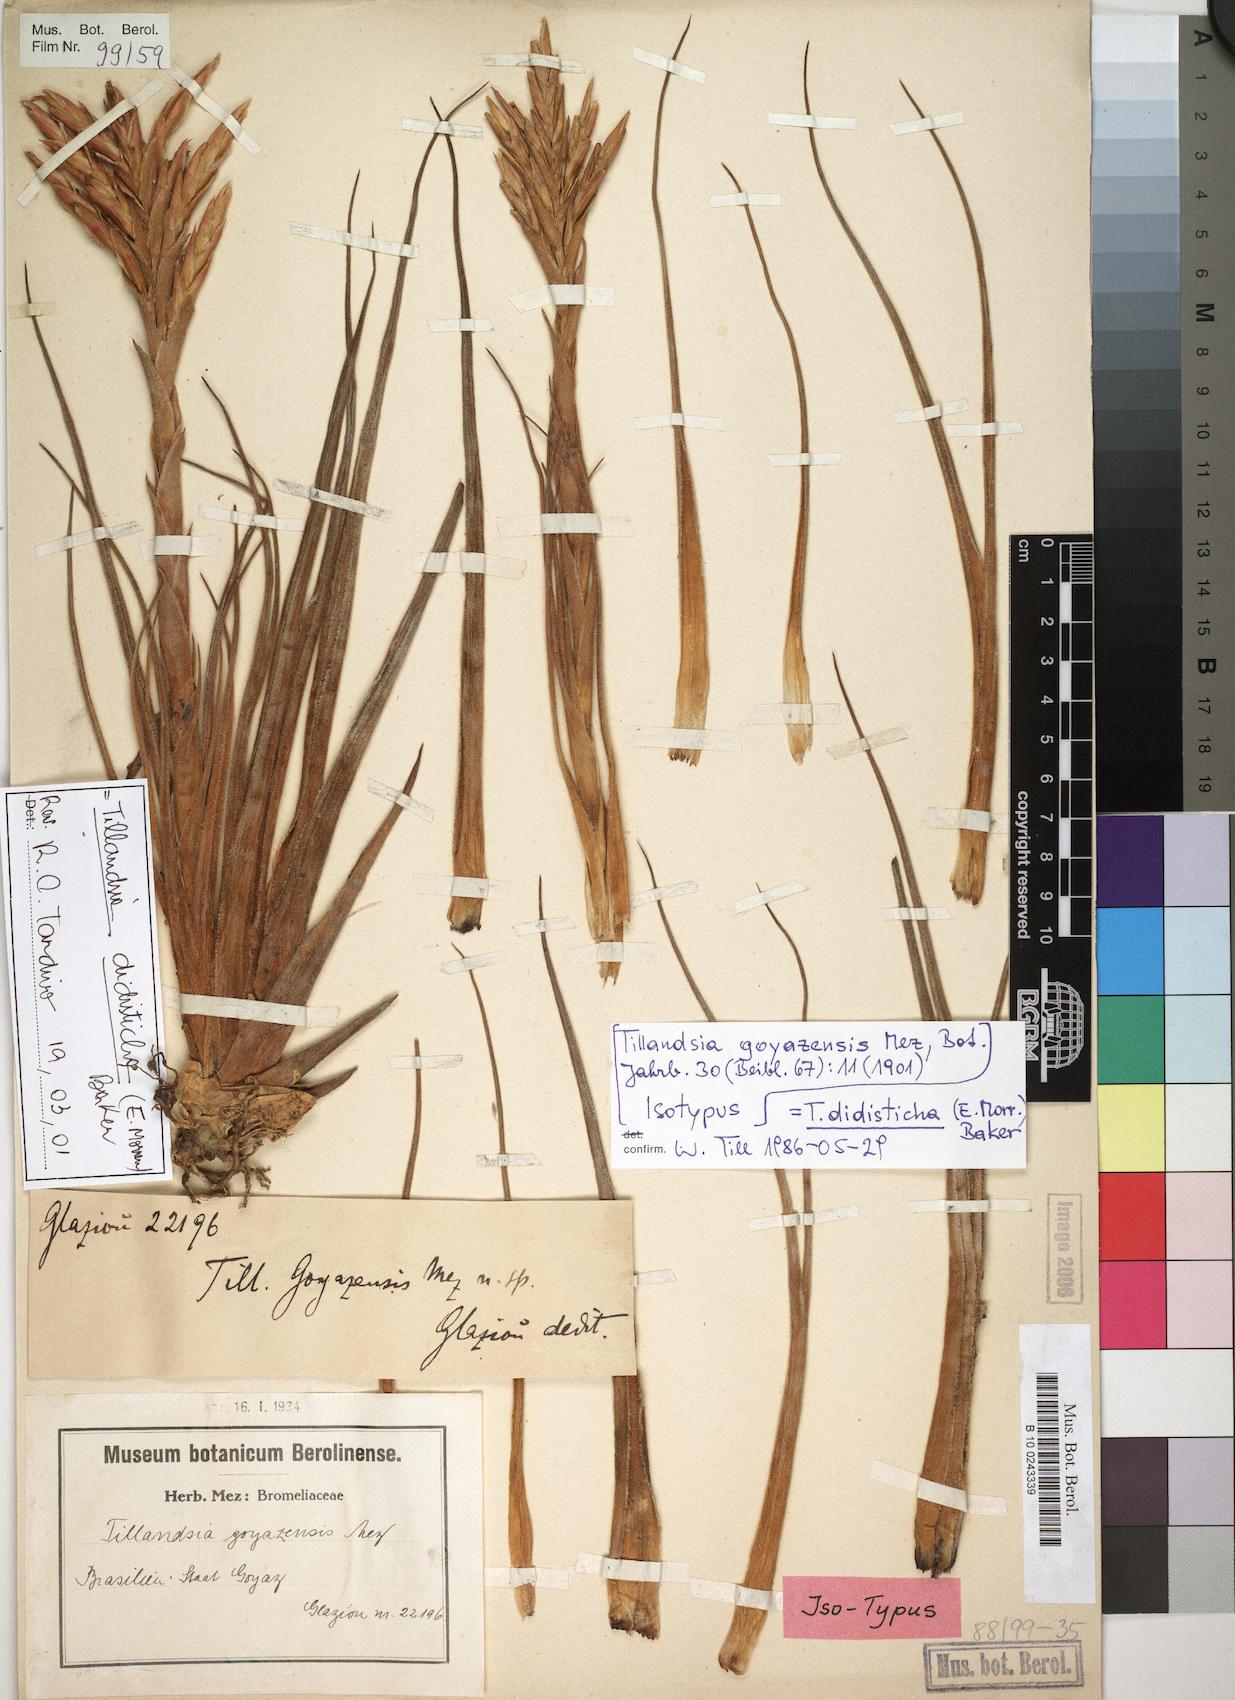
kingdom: Plantae
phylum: Tracheophyta
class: Liliopsida
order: Poales
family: Bromeliaceae
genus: Tillandsia
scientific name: Tillandsia didisticha
